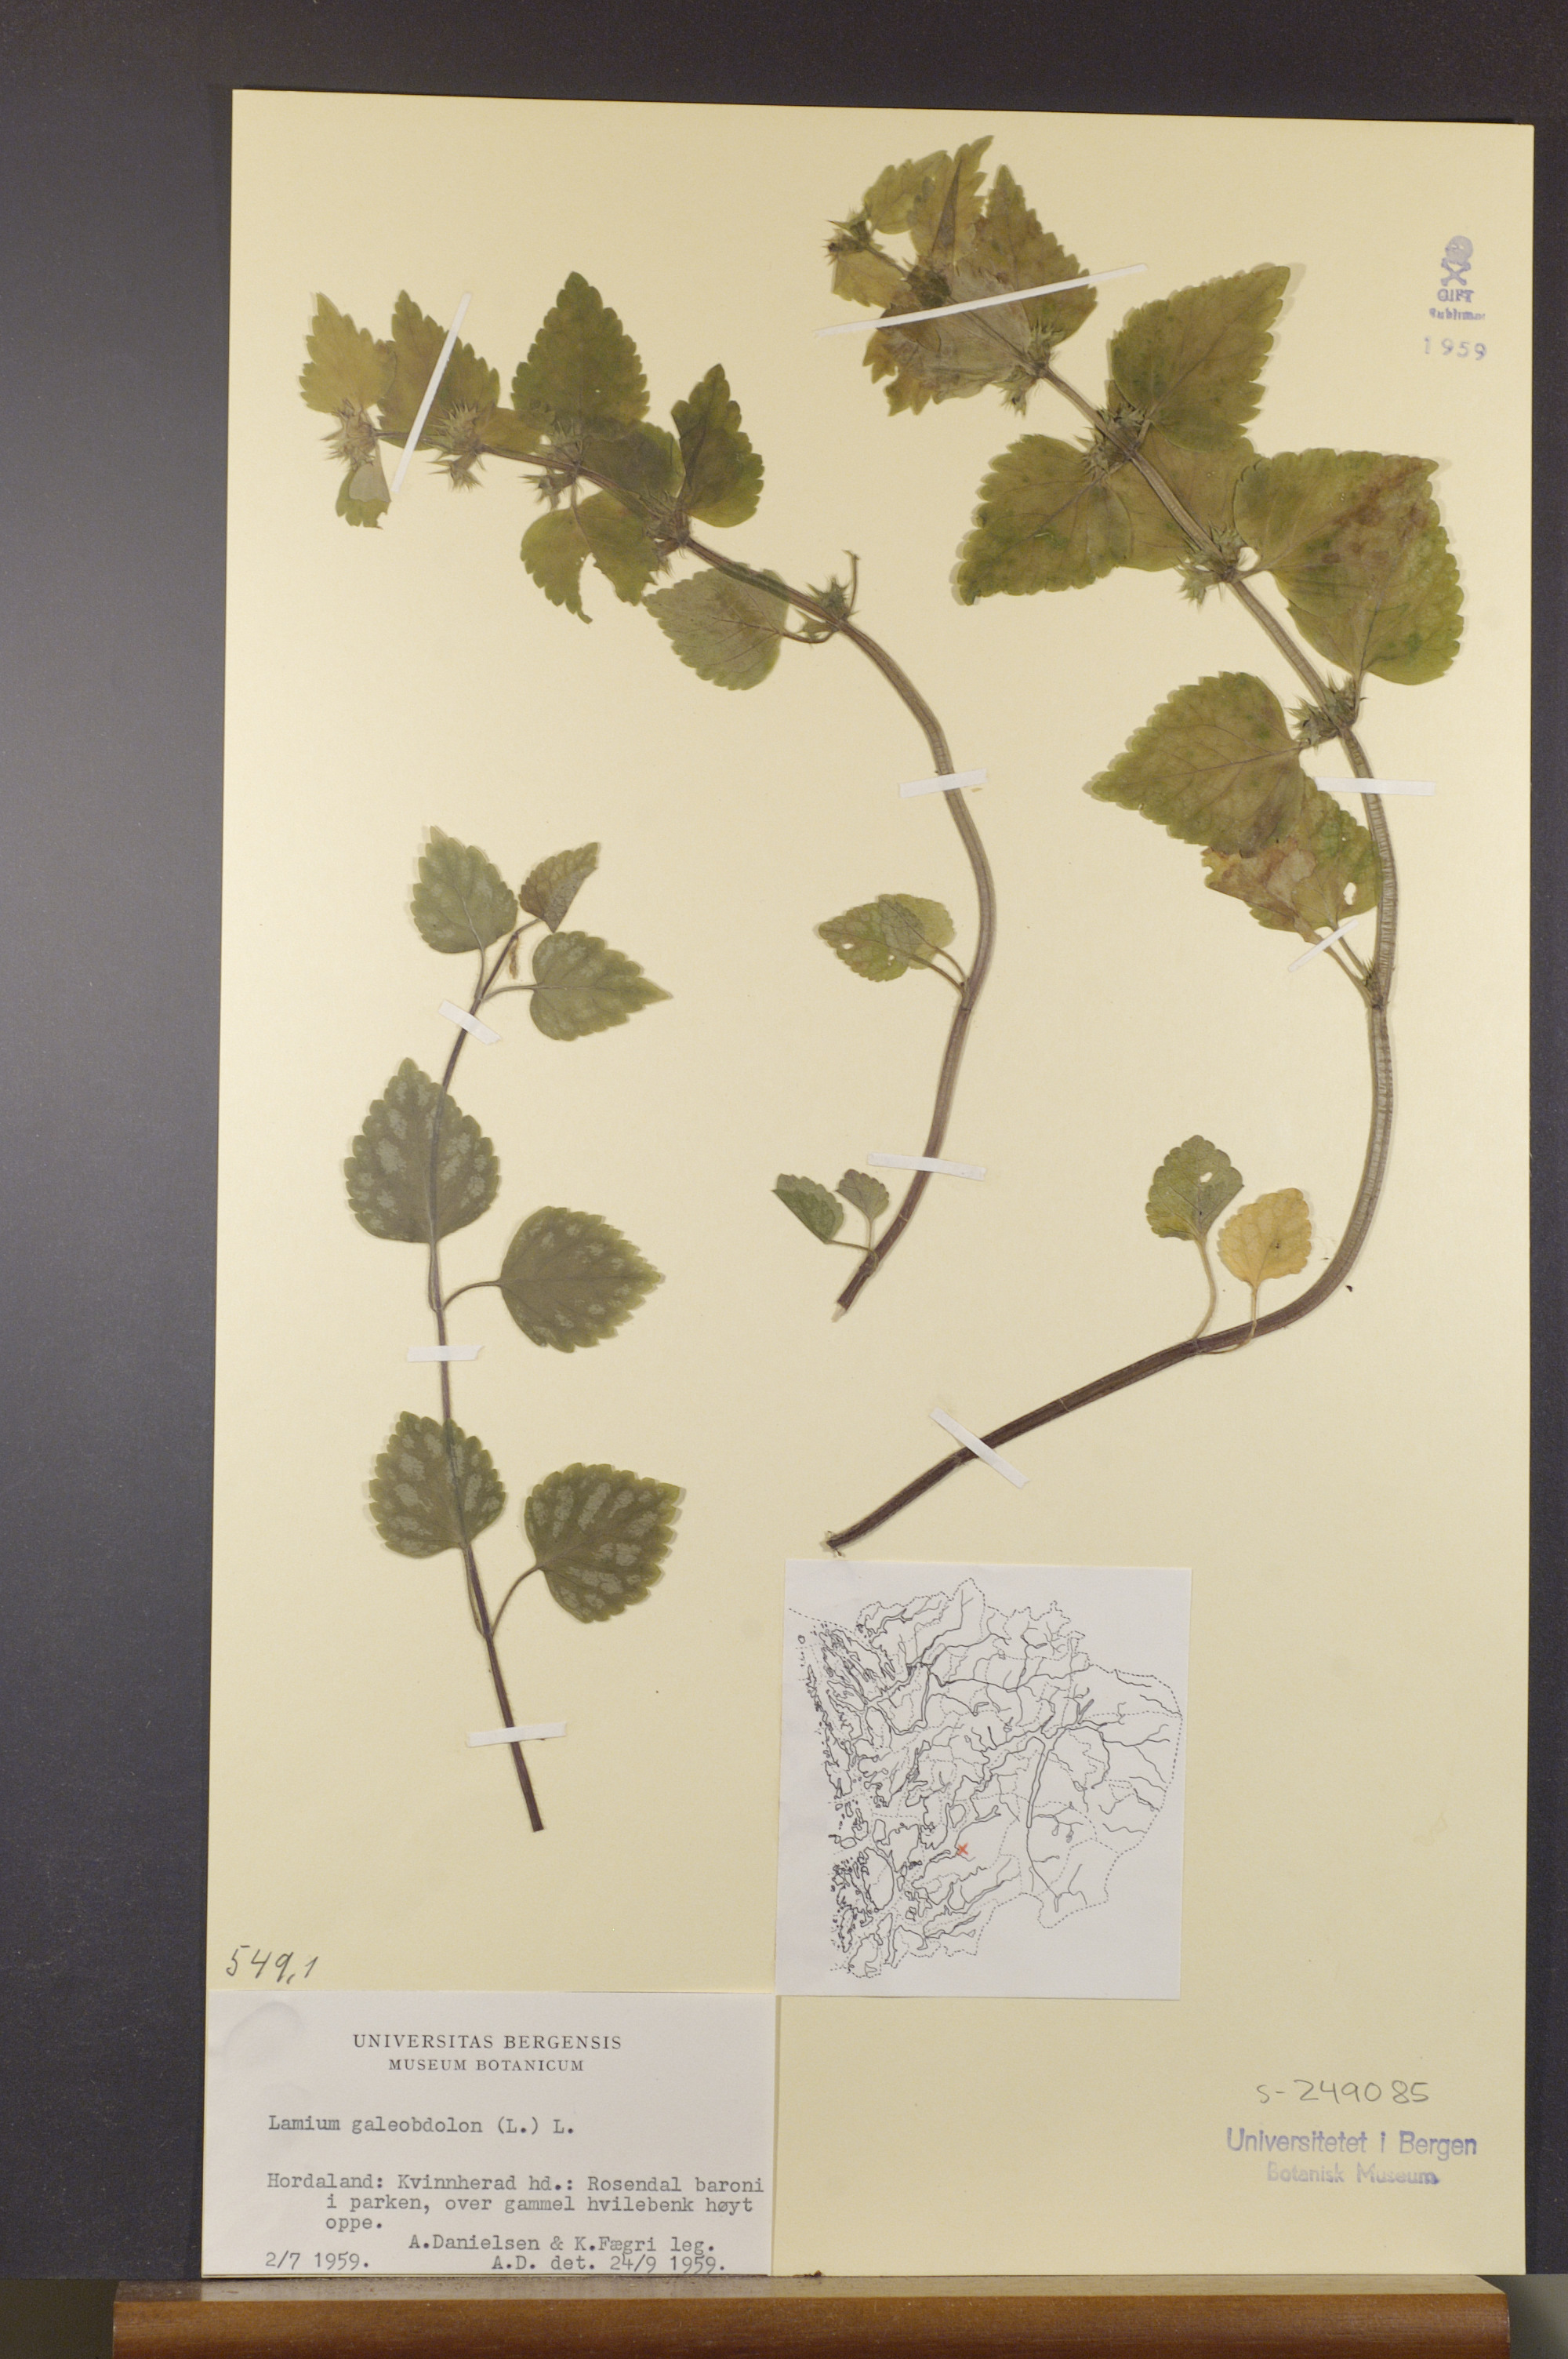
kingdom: Plantae
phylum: Tracheophyta
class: Magnoliopsida
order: Lamiales
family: Lamiaceae
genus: Lamium
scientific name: Lamium galeobdolon
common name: Yellow archangel
